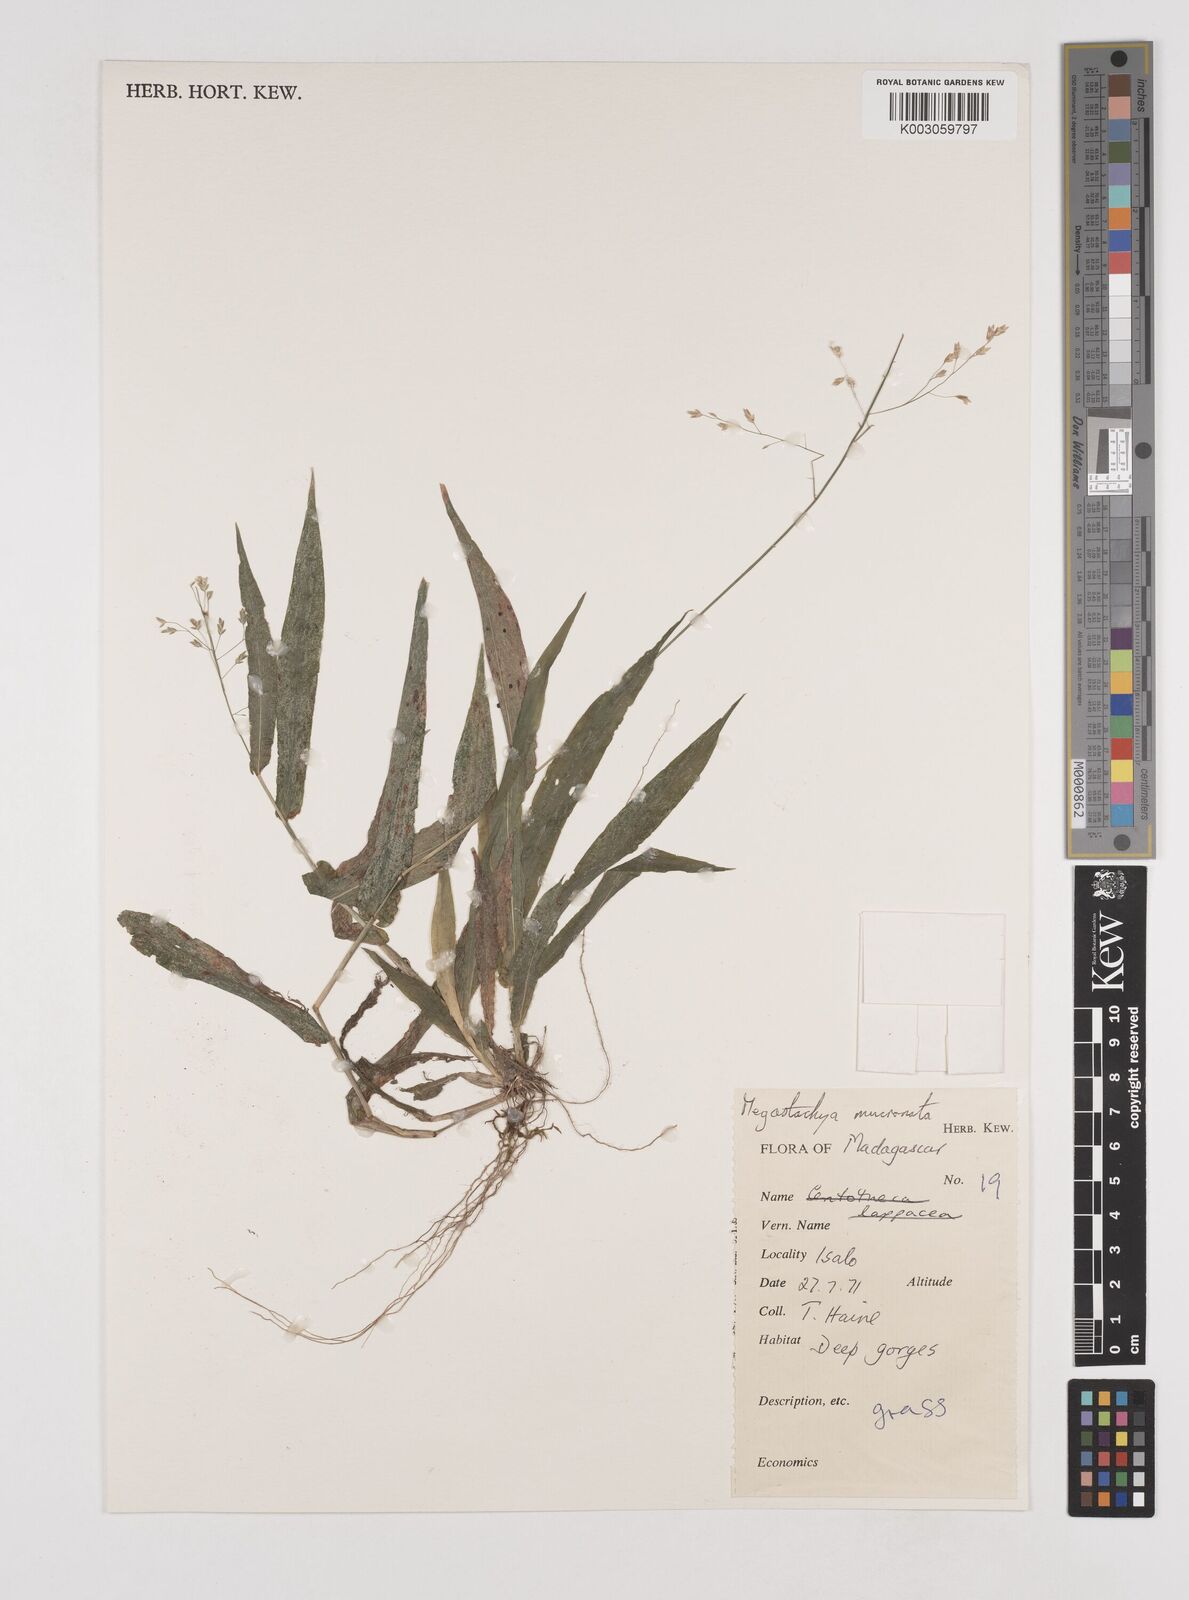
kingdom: Plantae
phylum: Tracheophyta
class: Liliopsida
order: Poales
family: Poaceae
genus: Megastachya
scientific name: Megastachya mucronata
